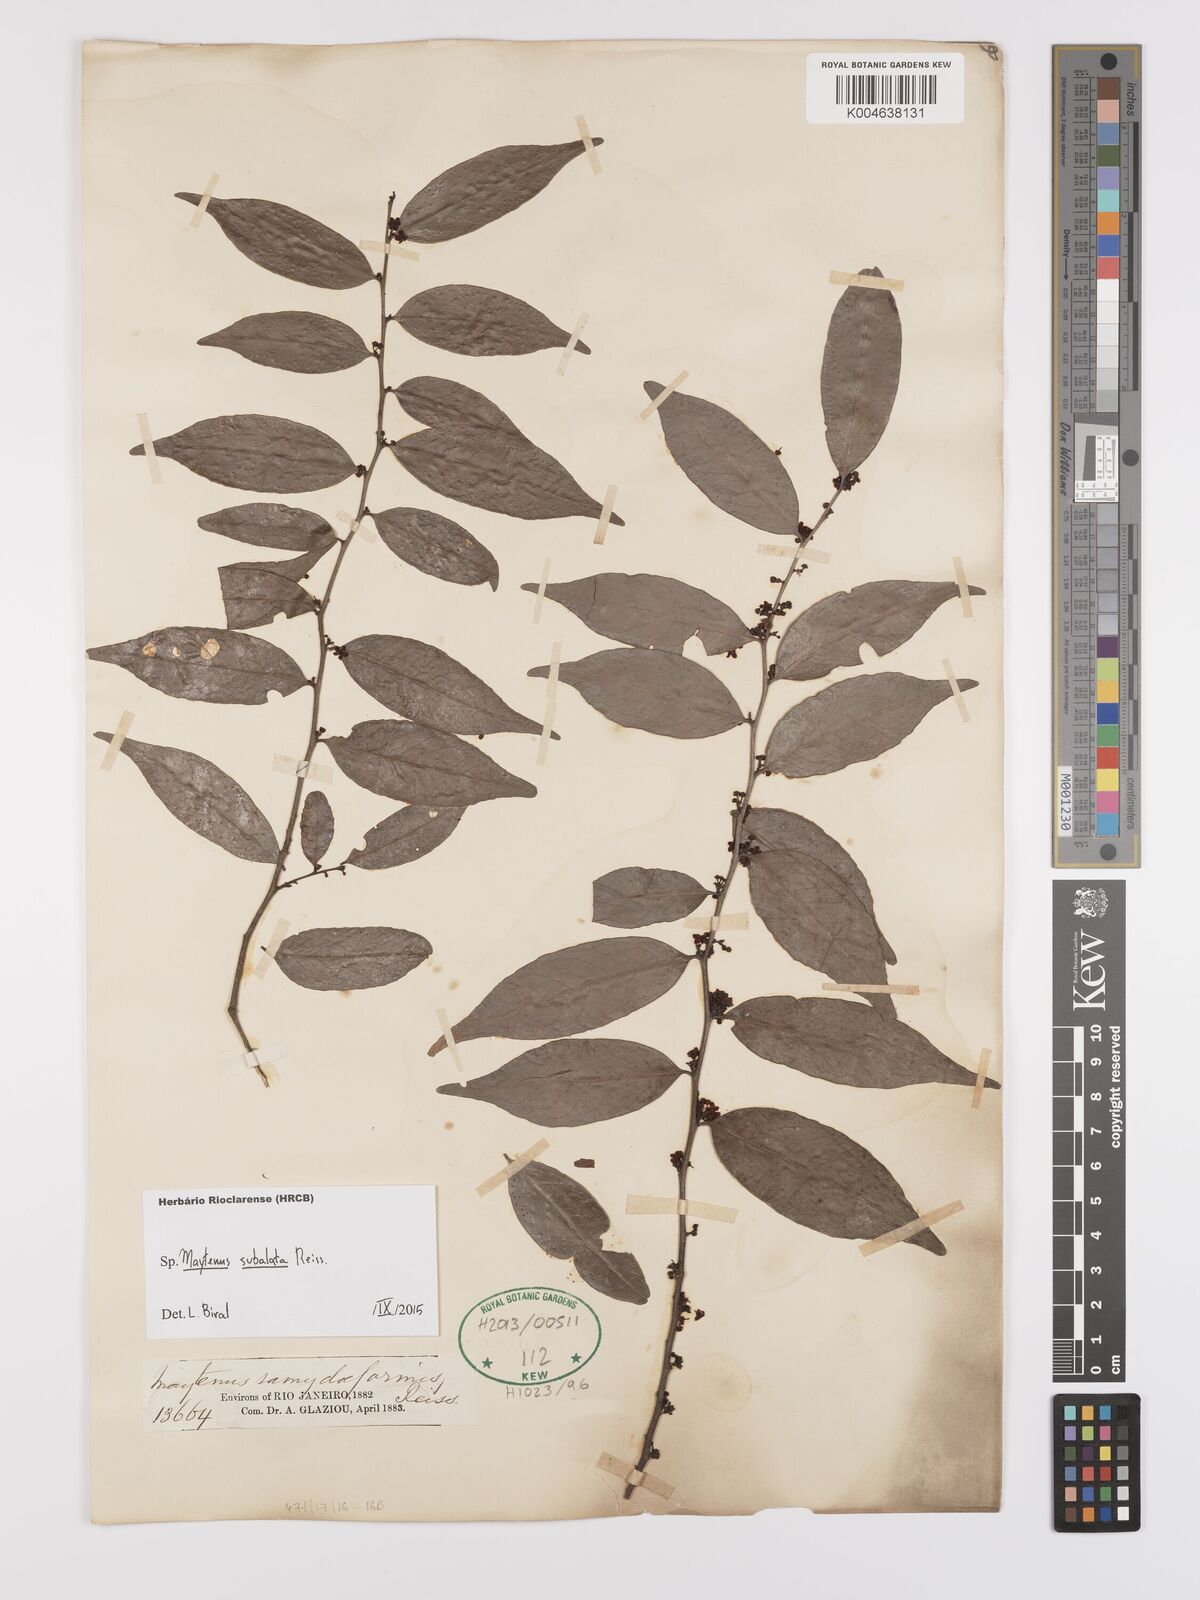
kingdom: Plantae
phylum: Tracheophyta
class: Magnoliopsida
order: Celastrales
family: Celastraceae
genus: Monteverdia
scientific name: Monteverdia subalata
